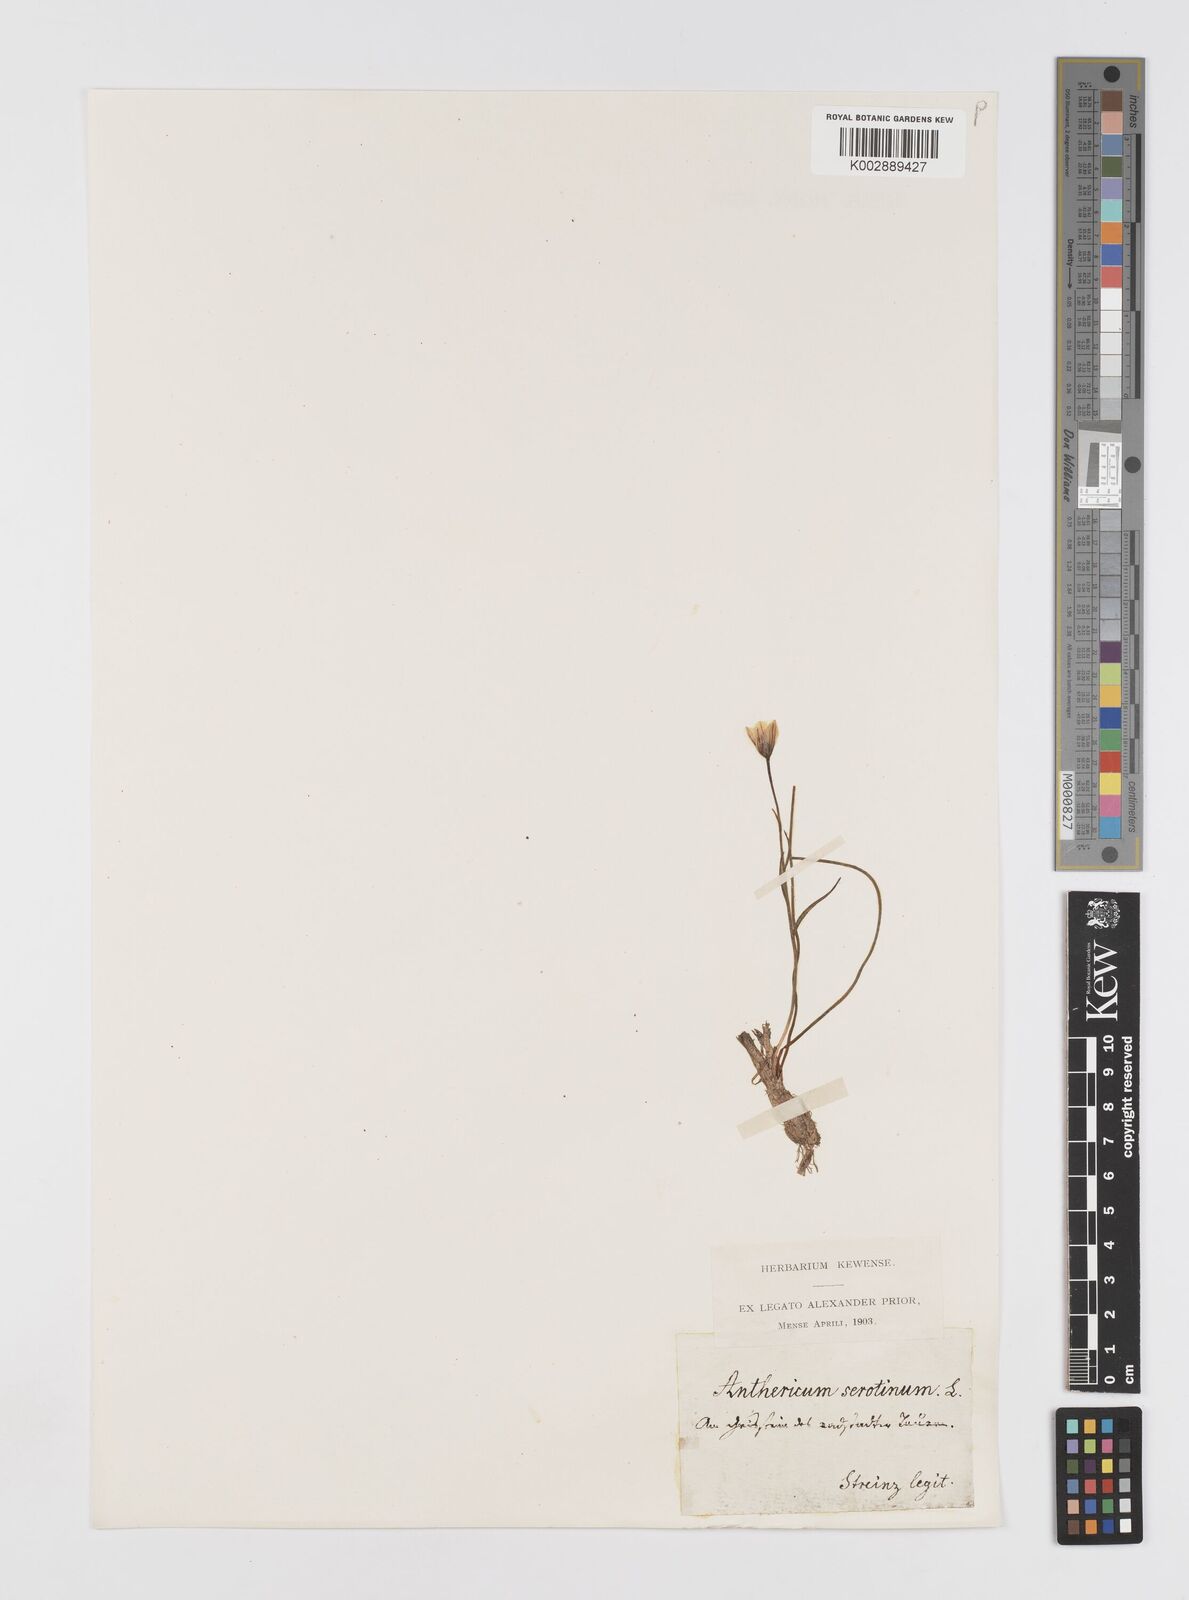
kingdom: Plantae
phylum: Tracheophyta
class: Liliopsida
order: Liliales
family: Liliaceae
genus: Gagea
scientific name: Gagea
